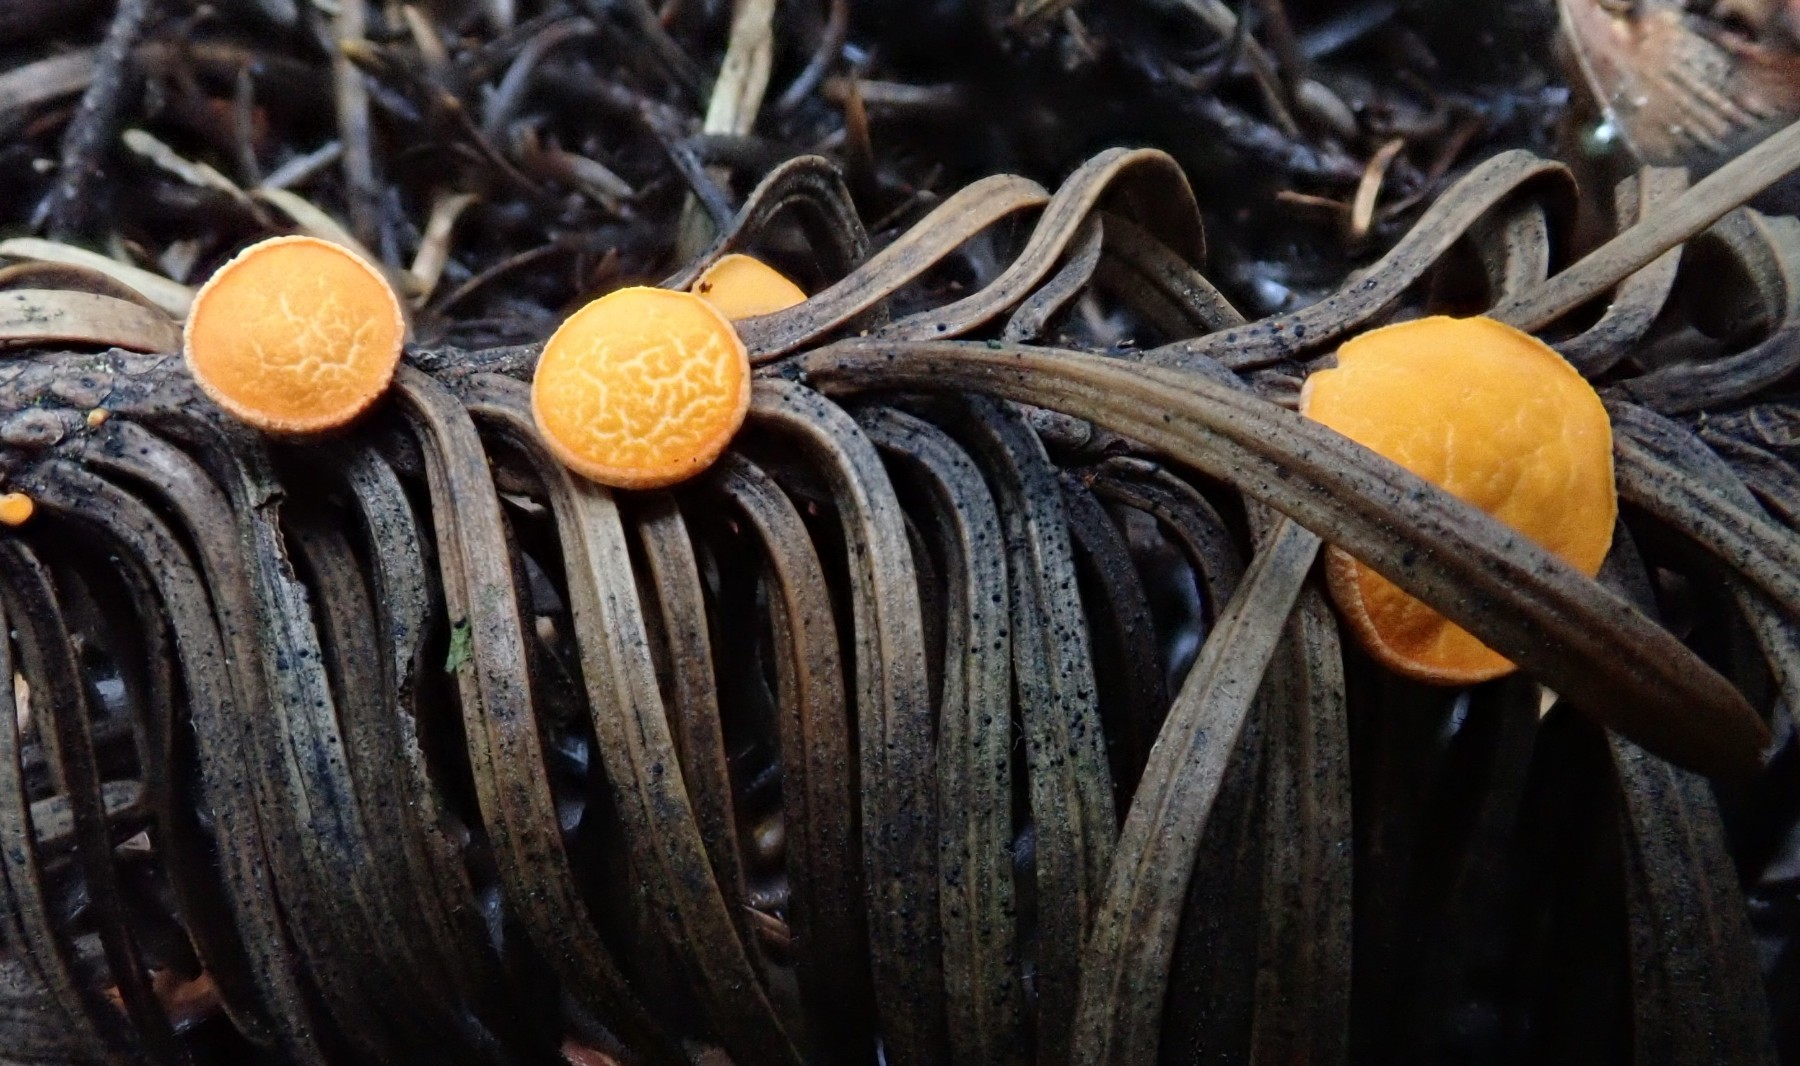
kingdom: Fungi
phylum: Ascomycota
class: Pezizomycetes
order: Pezizales
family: Sarcoscyphaceae
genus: Pithya
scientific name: Pithya vulgaris
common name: stor dukatbæger
